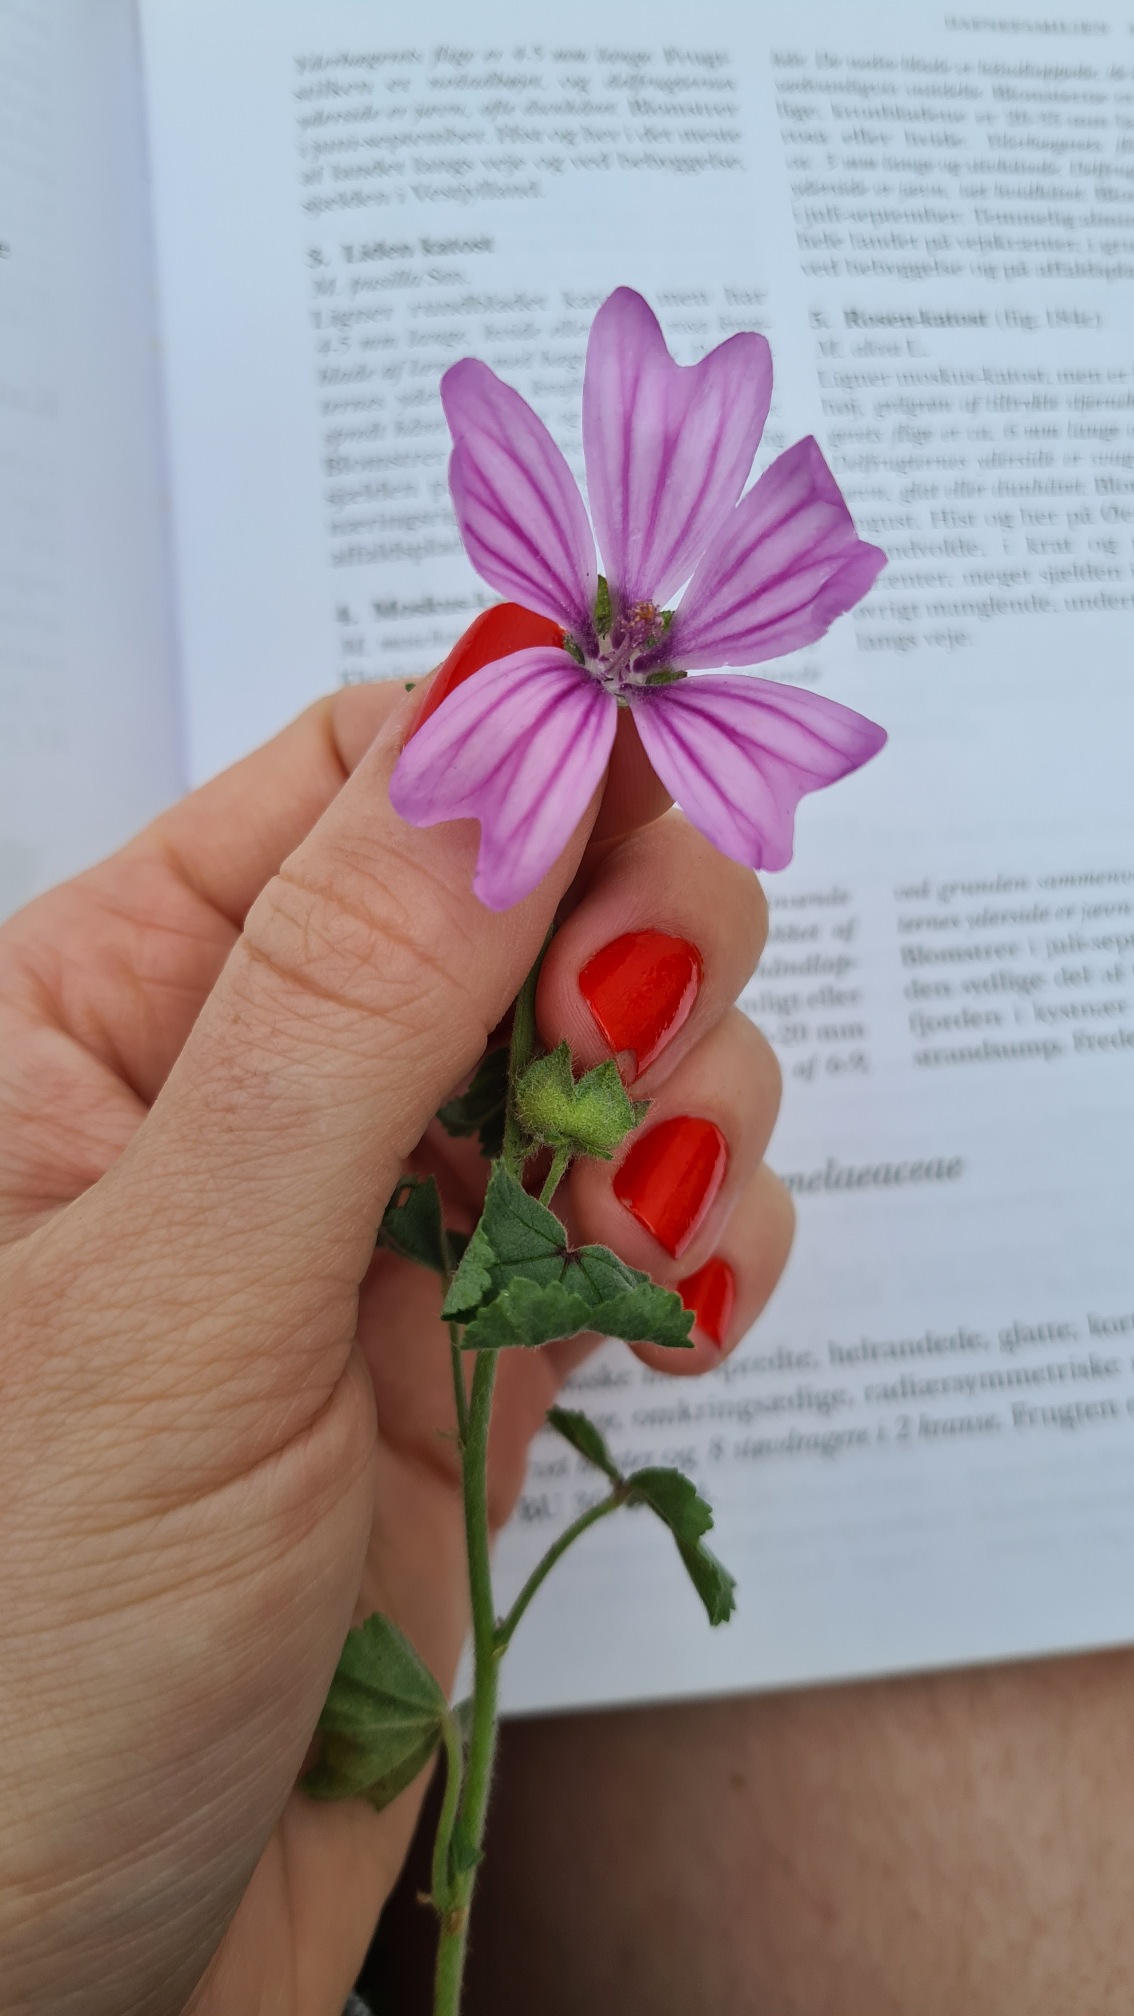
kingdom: Plantae
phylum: Tracheophyta
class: Magnoliopsida
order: Malvales
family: Malvaceae
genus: Malva
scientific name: Malva sylvestris
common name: Almindelig katost
